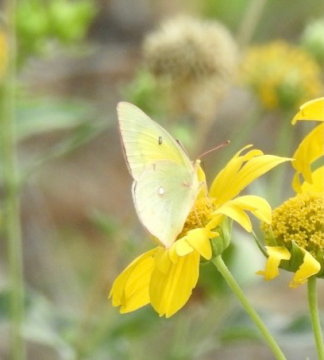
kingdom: Animalia
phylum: Arthropoda
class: Insecta
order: Lepidoptera
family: Pieridae
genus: Colias
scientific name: Colias eurytheme
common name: Orange Sulphur
